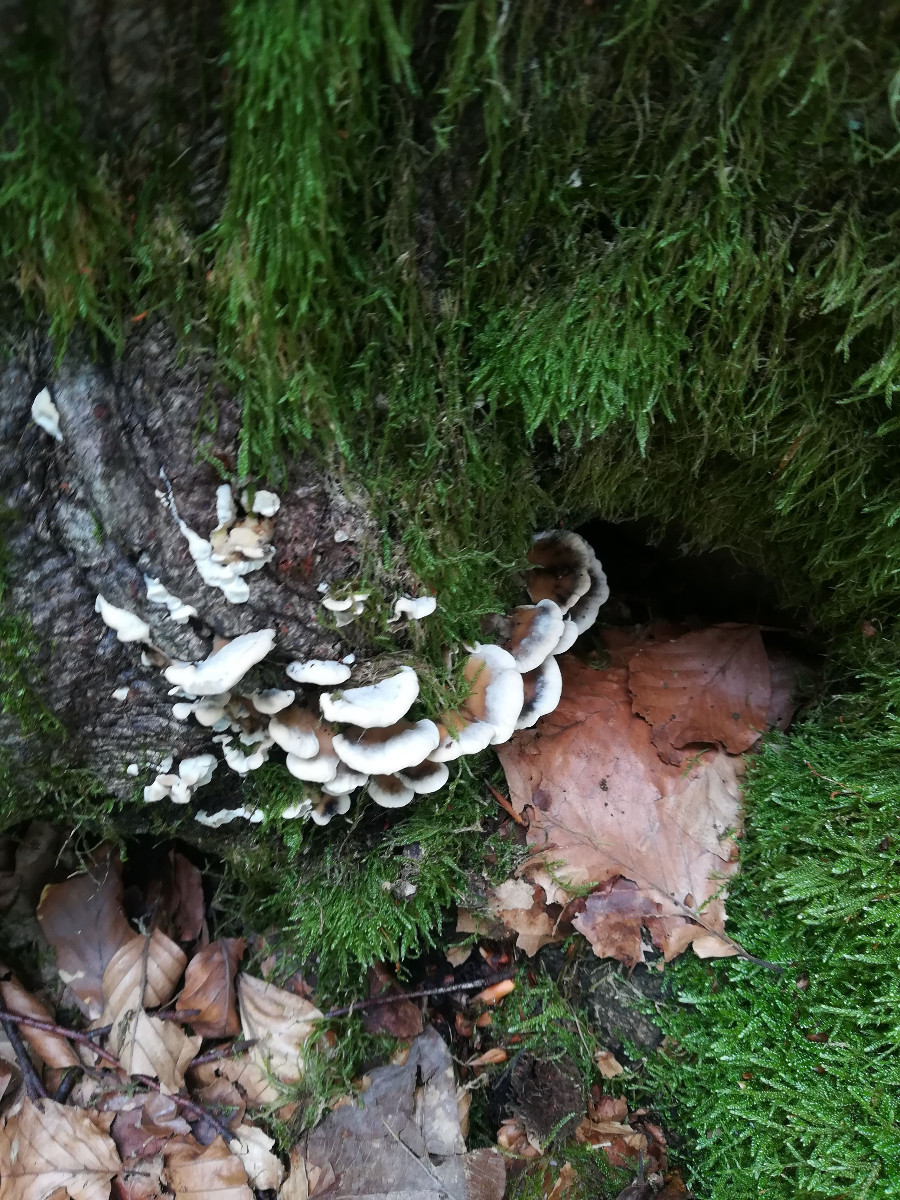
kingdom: Fungi
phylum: Basidiomycota
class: Agaricomycetes
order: Polyporales
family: Phanerochaetaceae
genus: Bjerkandera
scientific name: Bjerkandera adusta
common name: sveden sodporesvamp
